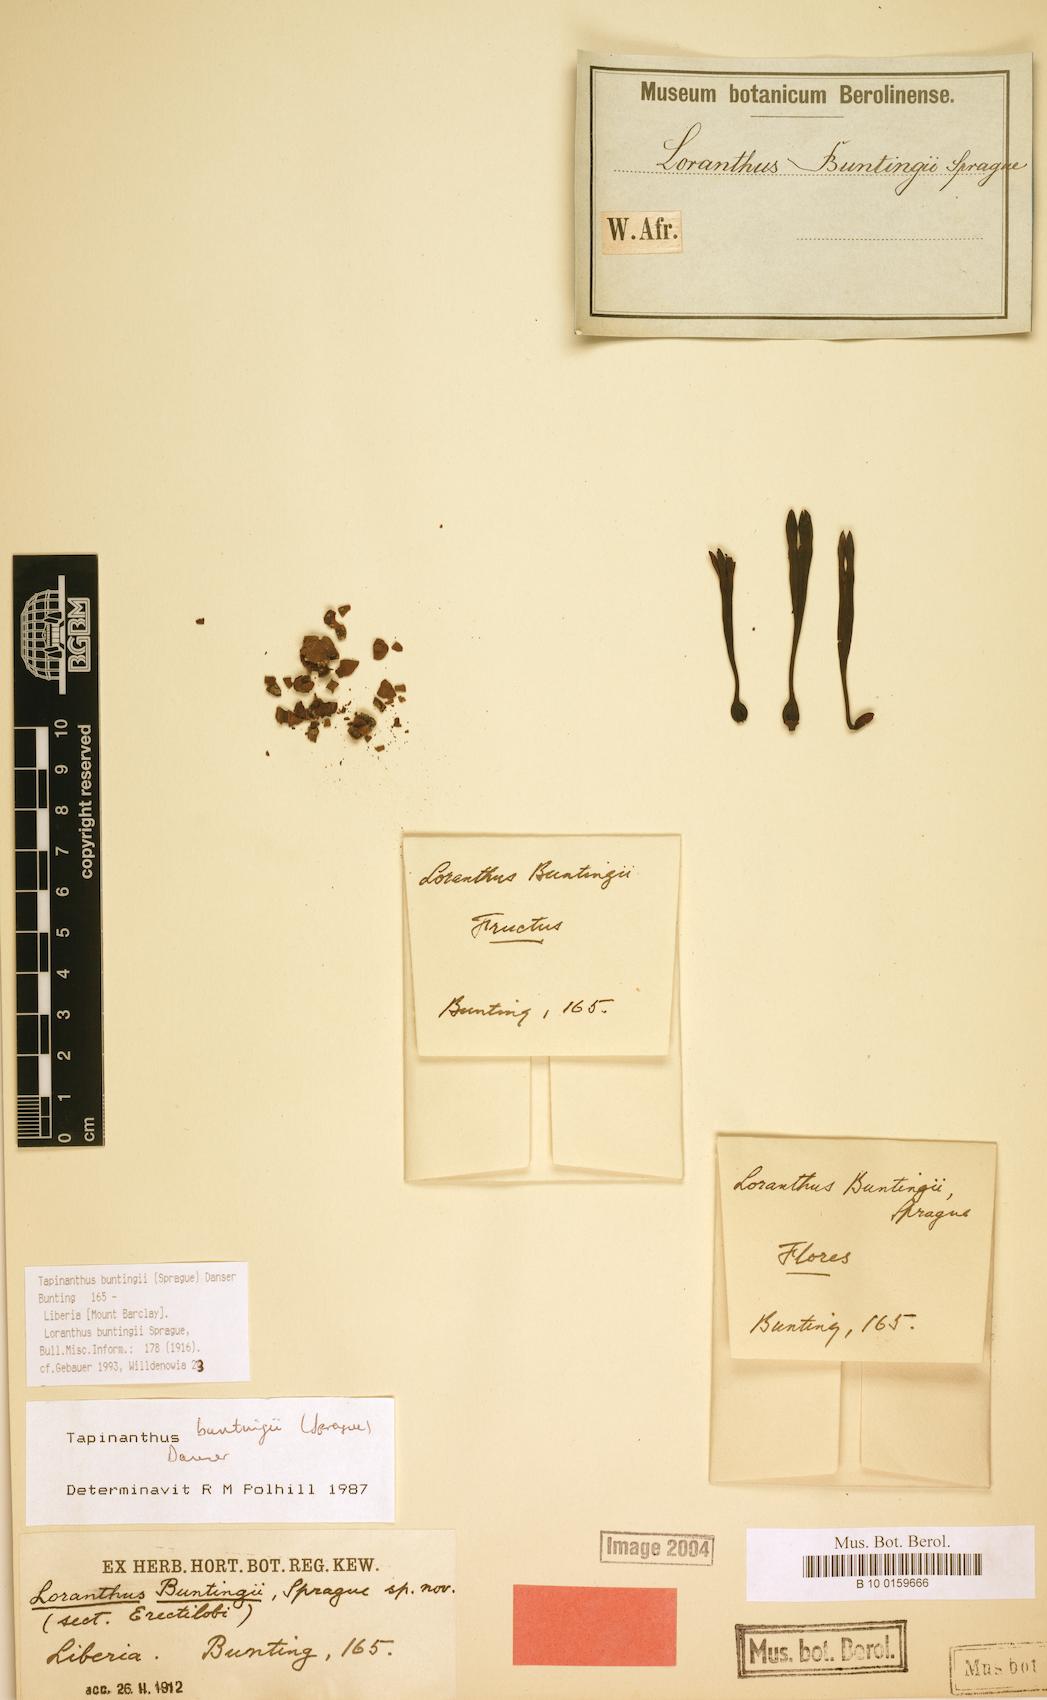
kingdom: Plantae
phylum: Tracheophyta
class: Magnoliopsida
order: Santalales
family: Loranthaceae
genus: Tapinanthus
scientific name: Tapinanthus buntingii
